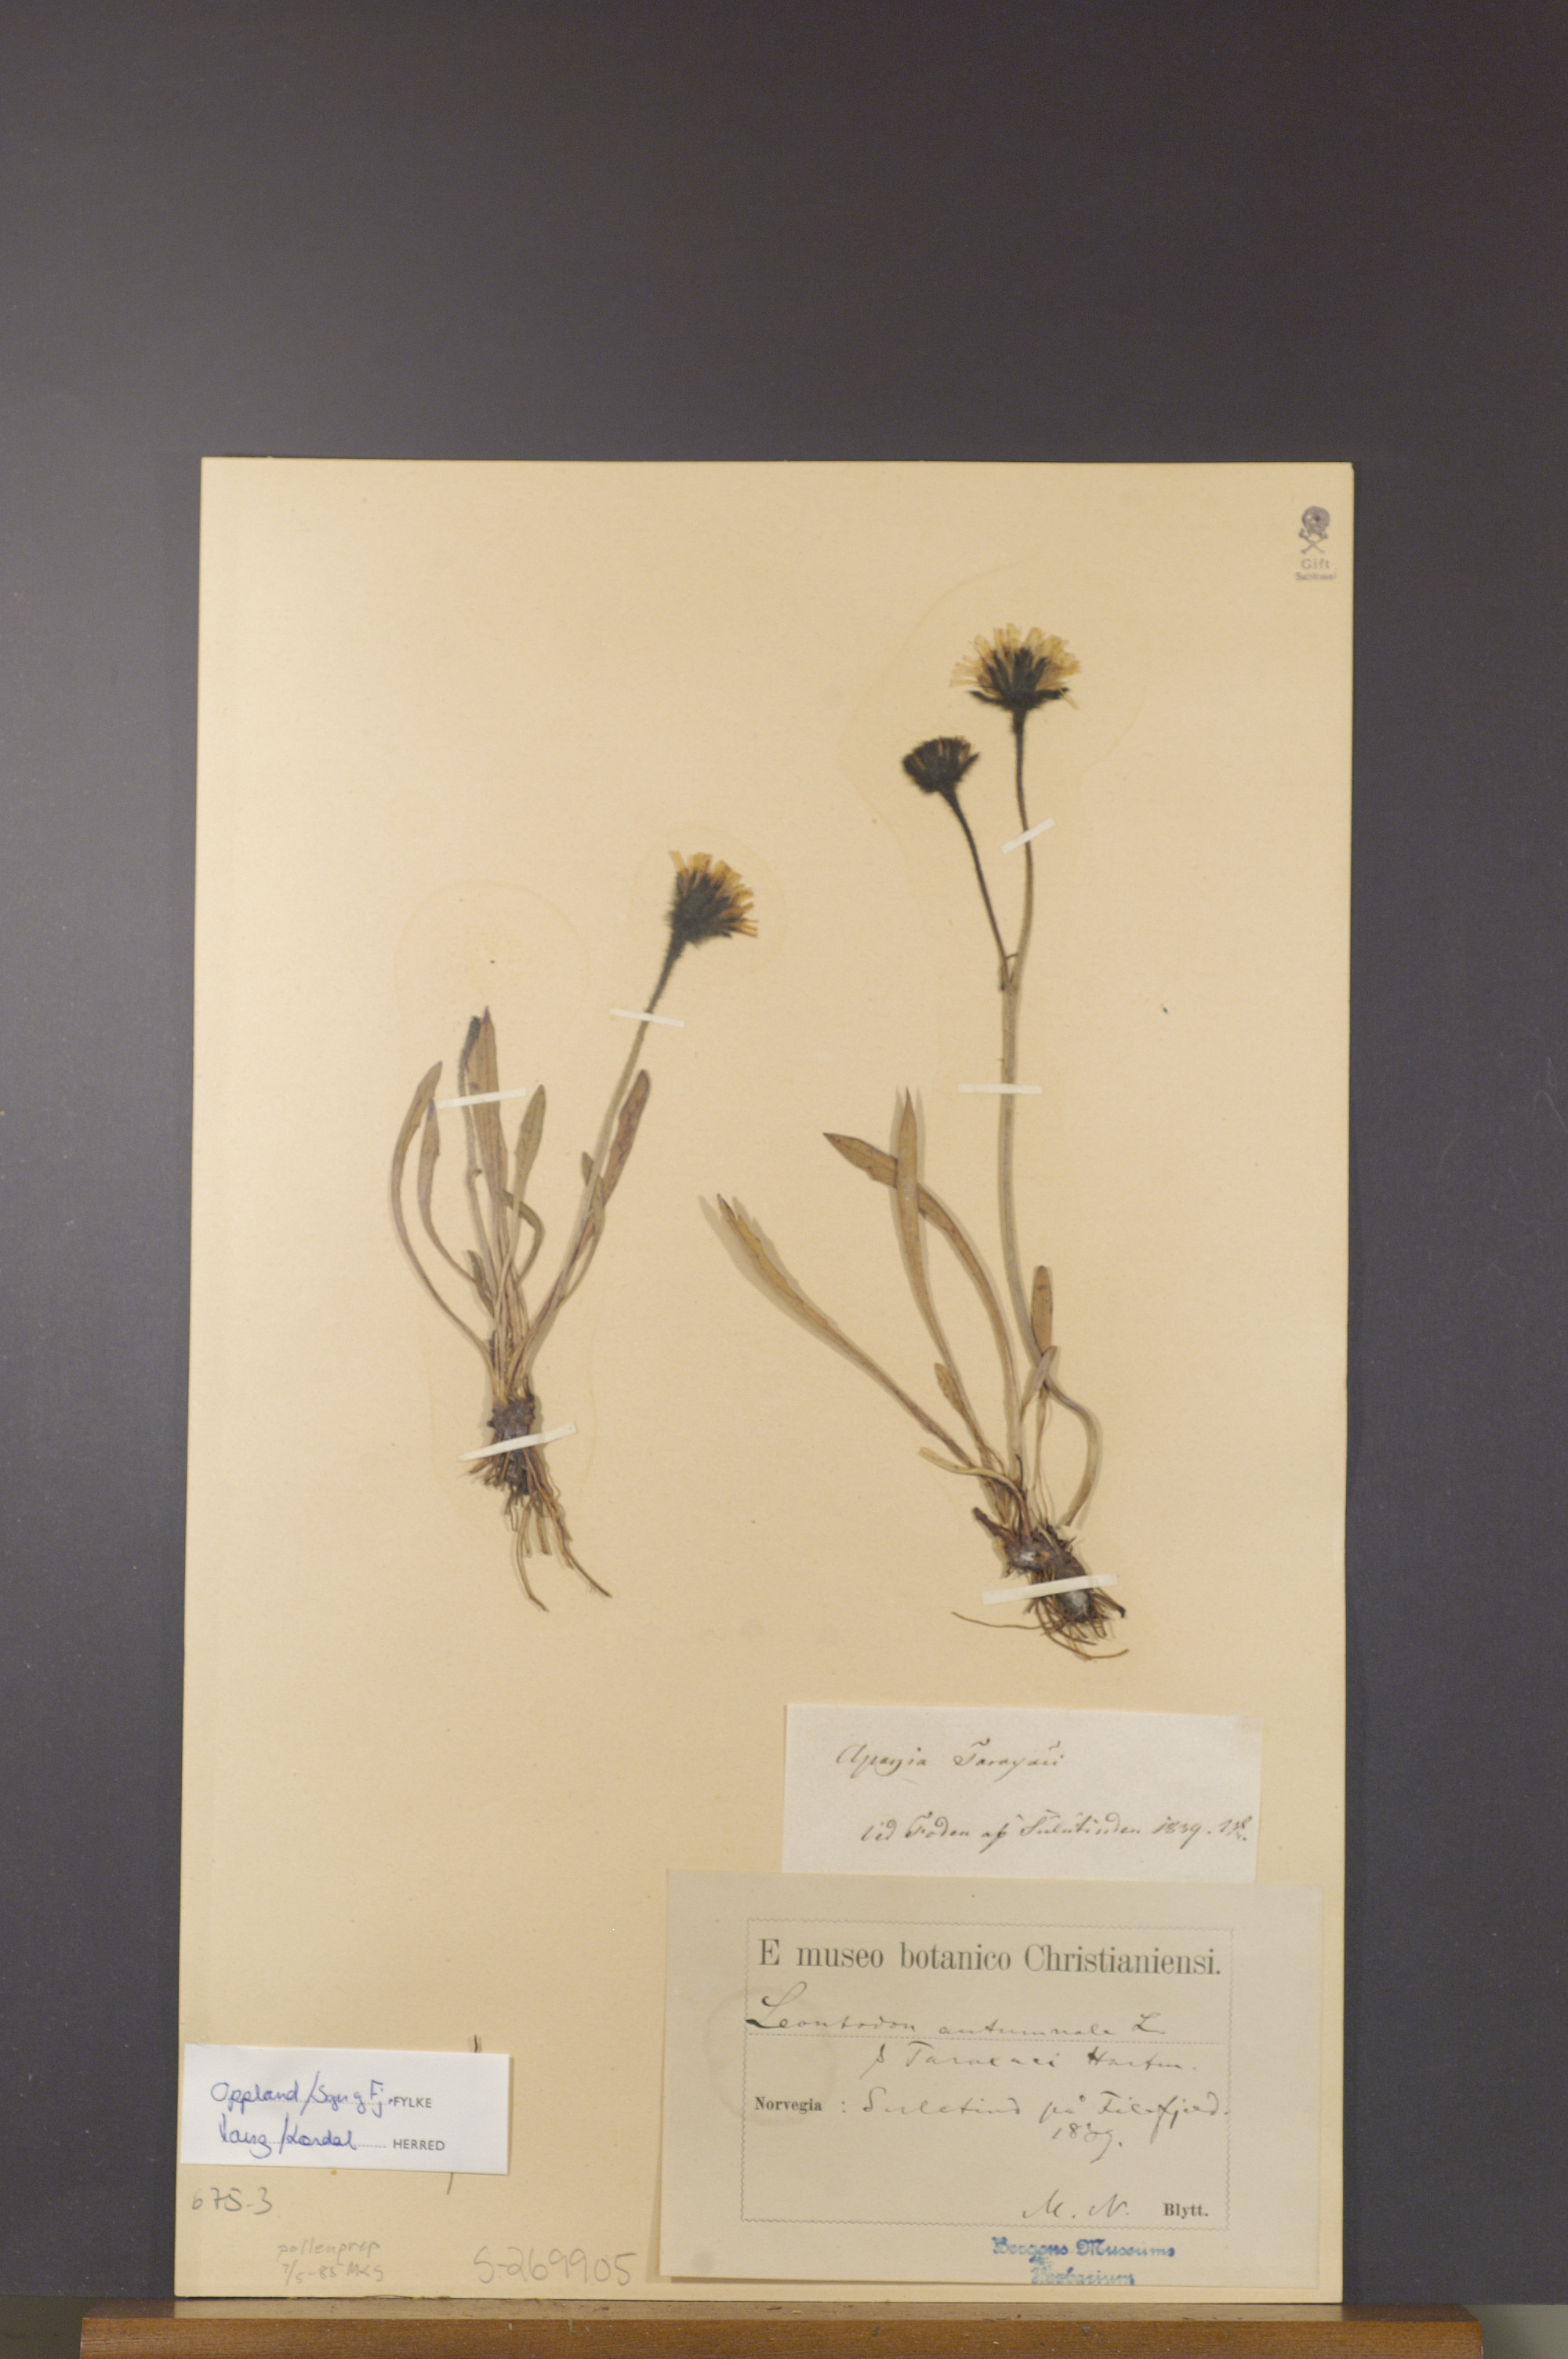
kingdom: Plantae
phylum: Tracheophyta
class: Magnoliopsida
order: Asterales
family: Asteraceae
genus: Scorzoneroides
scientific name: Scorzoneroides autumnalis
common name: Autumn hawkbit
